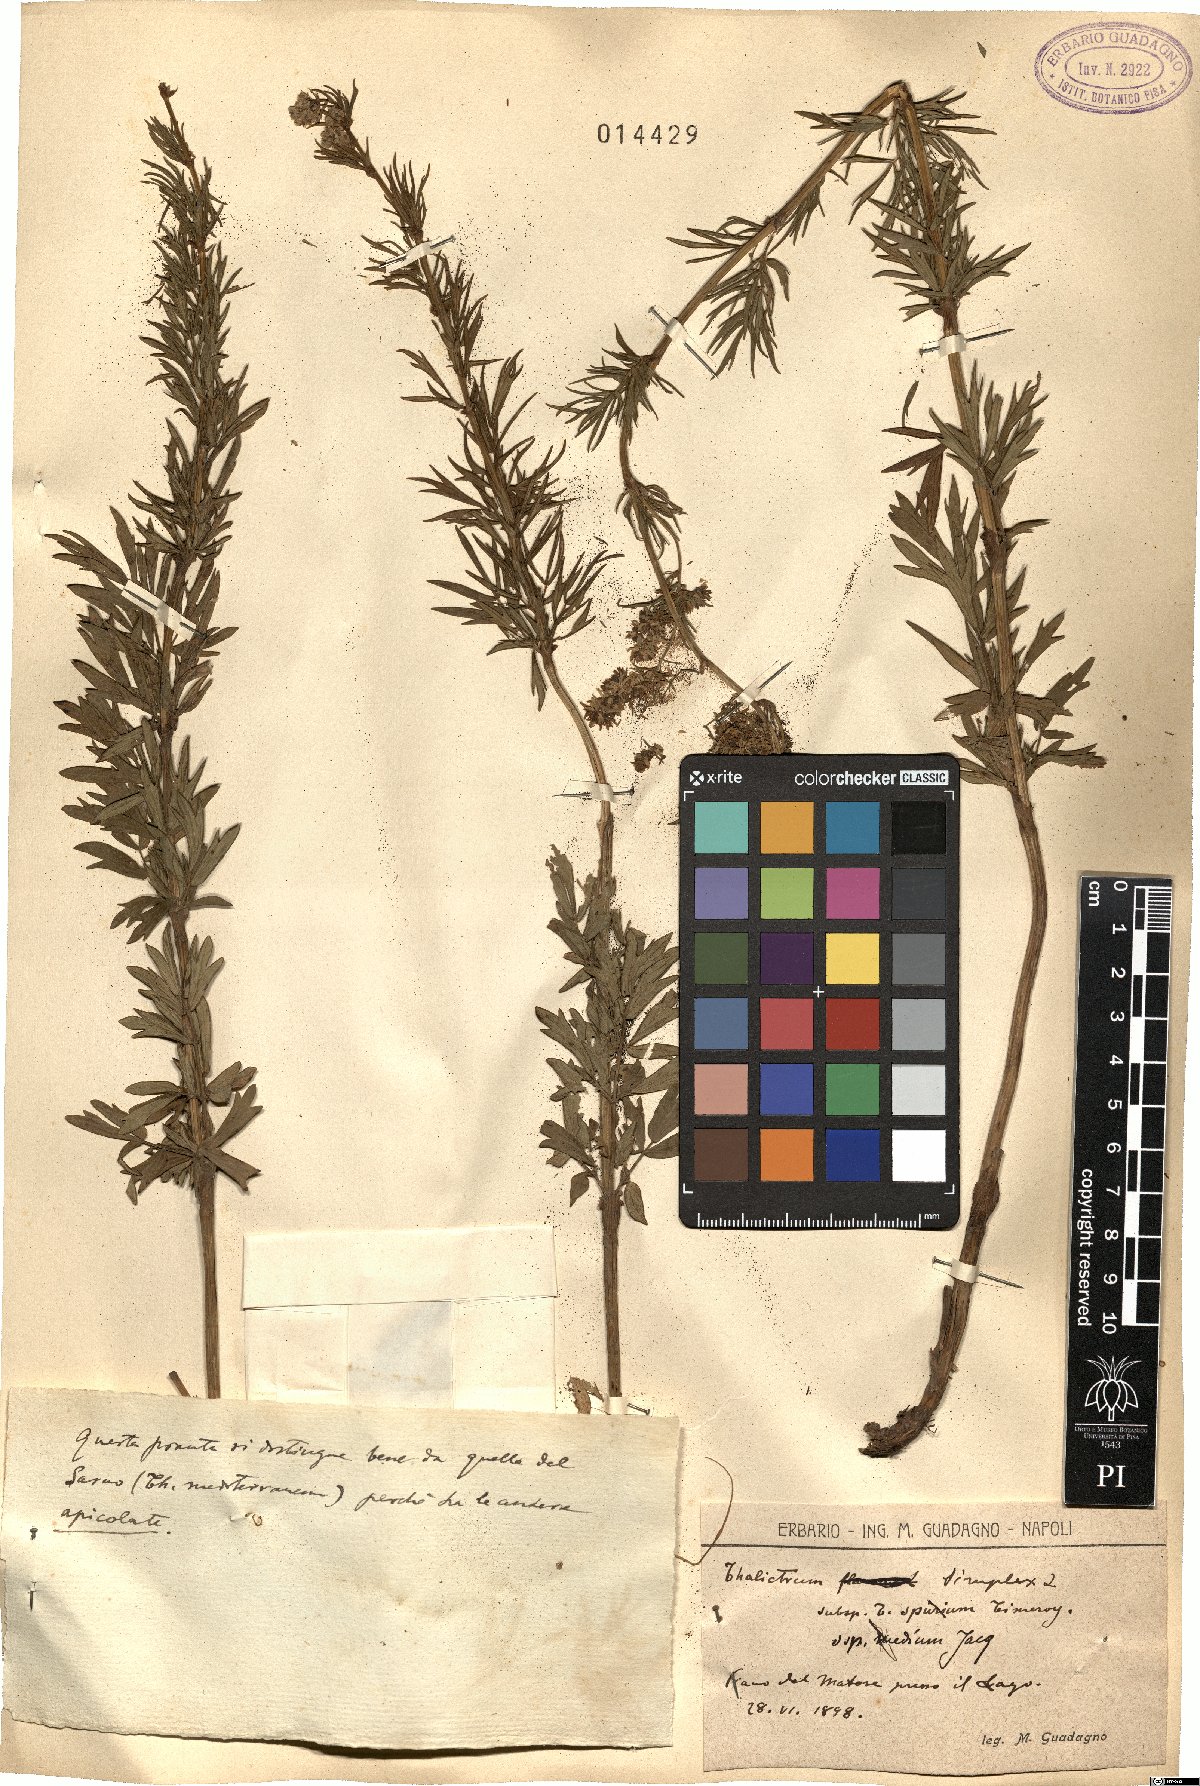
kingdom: Plantae
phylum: Tracheophyta
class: Magnoliopsida
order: Ranunculales
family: Ranunculaceae
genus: Thalictrum
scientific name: Thalictrum simplex
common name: Small meadow-rue
